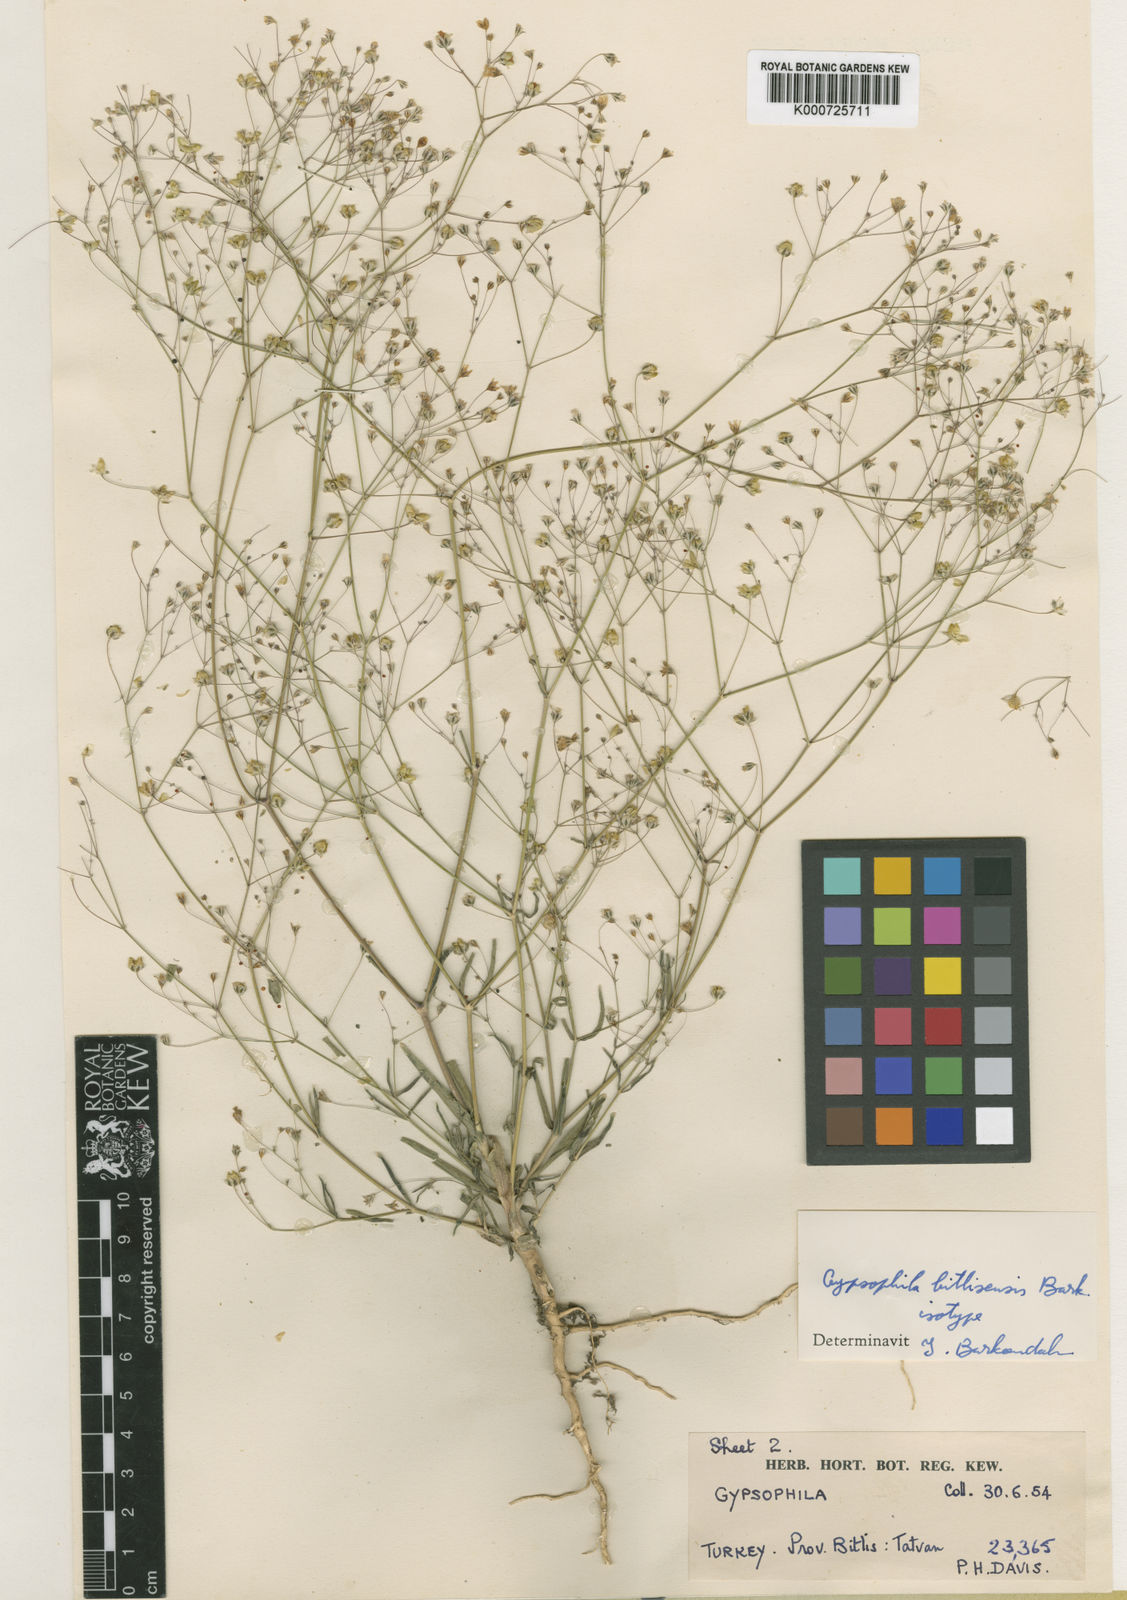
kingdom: Plantae
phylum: Tracheophyta
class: Magnoliopsida
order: Caryophyllales
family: Caryophyllaceae
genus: Gypsophila
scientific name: Gypsophila bitlisensis
